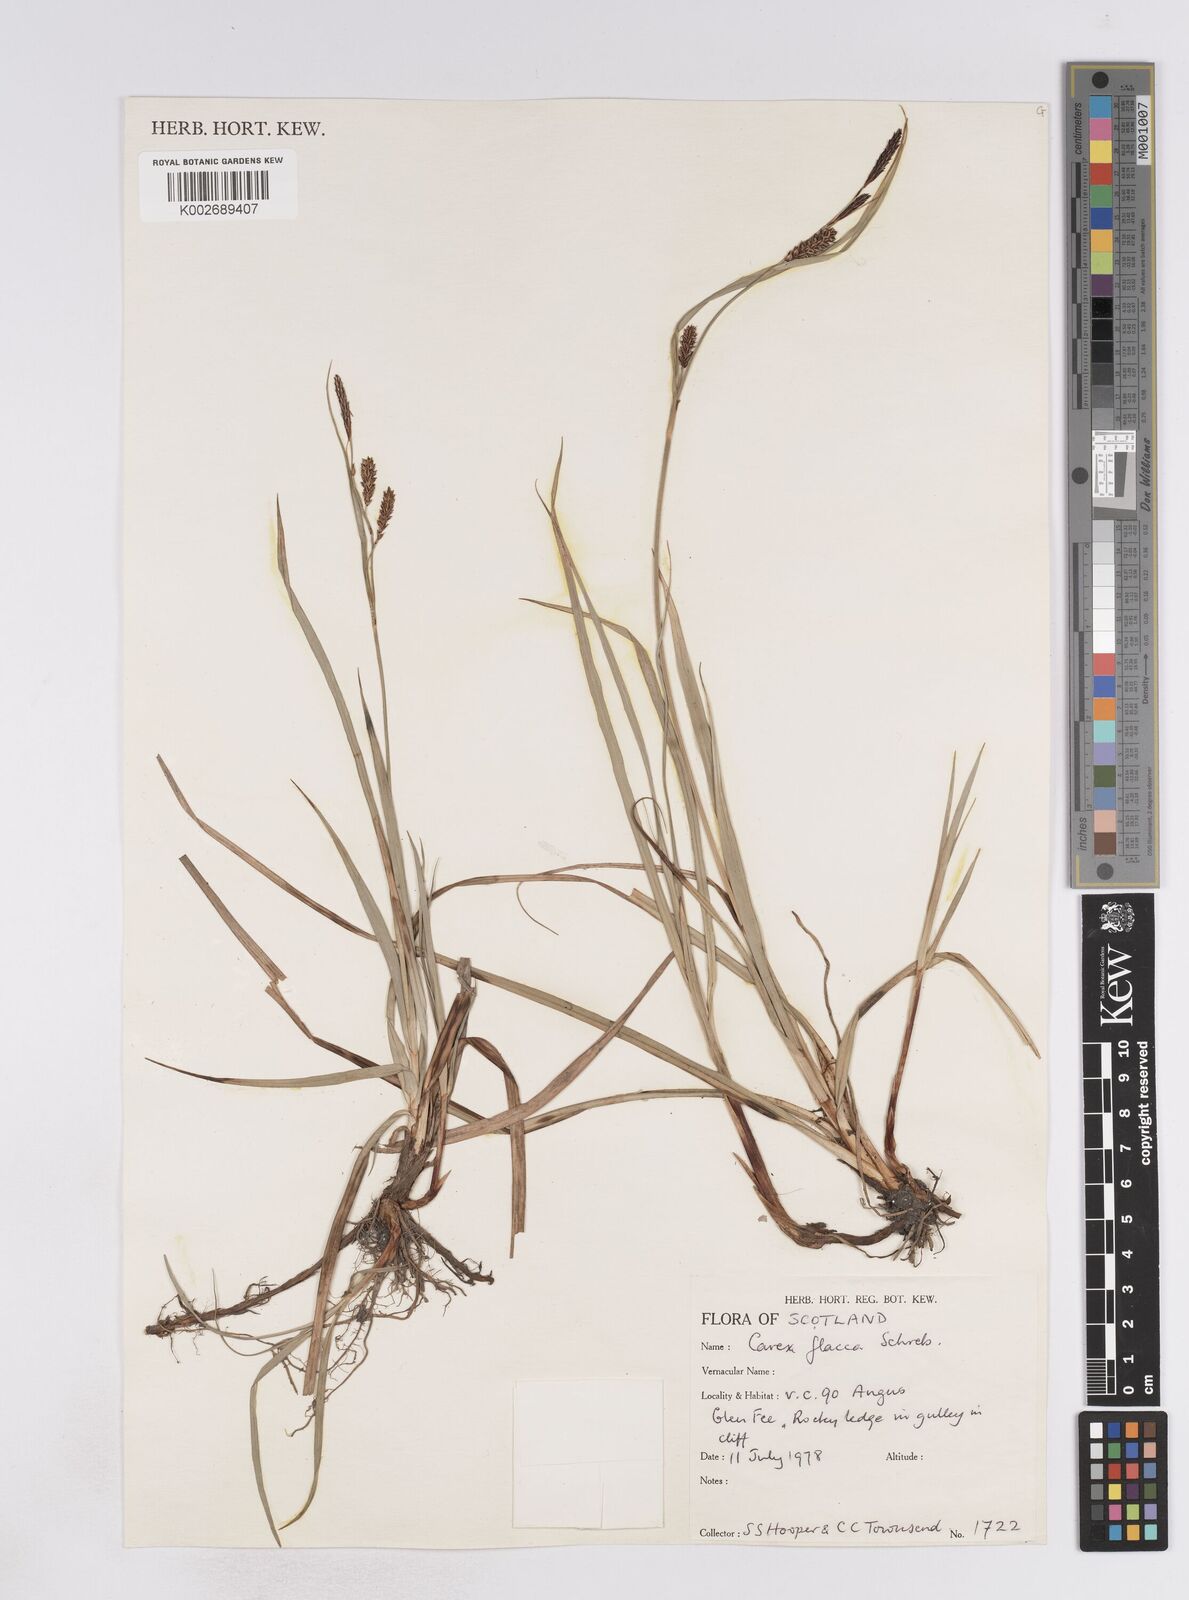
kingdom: Plantae
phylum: Tracheophyta
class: Liliopsida
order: Poales
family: Cyperaceae
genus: Carex
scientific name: Carex flacca
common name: Glaucous sedge
